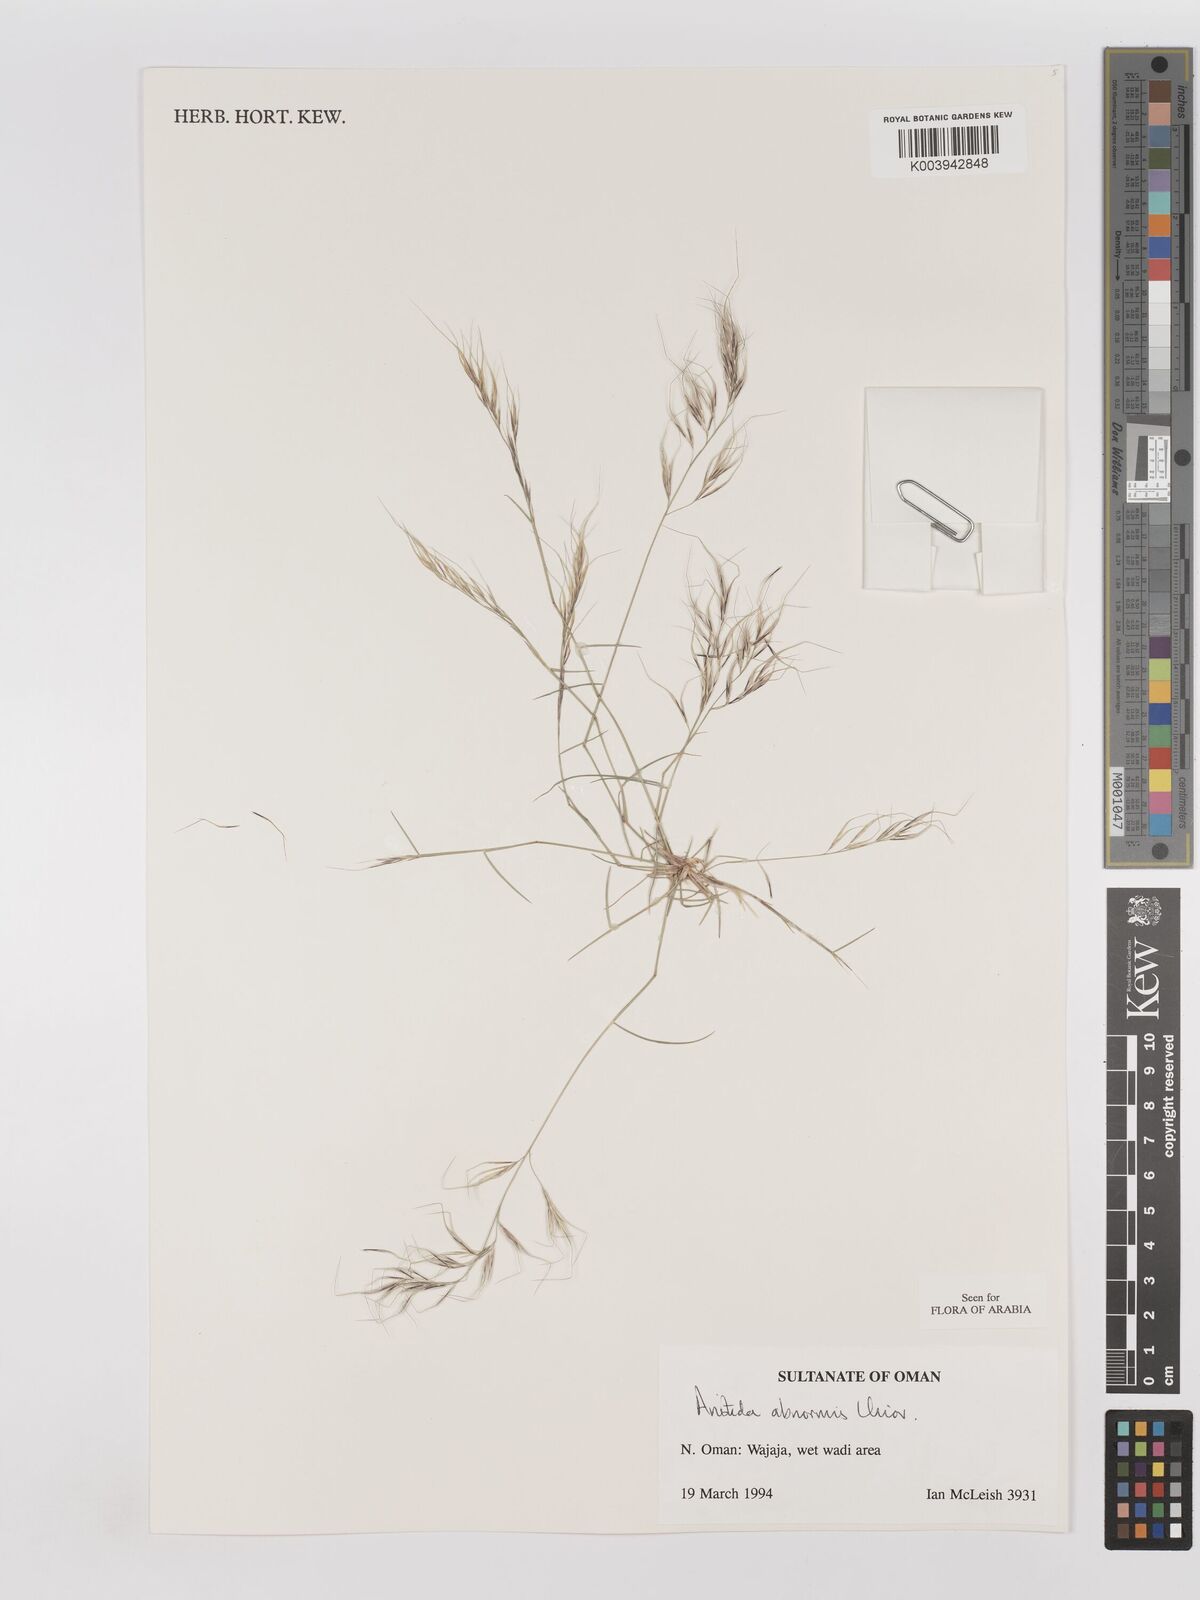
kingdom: Plantae
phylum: Tracheophyta
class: Liliopsida
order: Poales
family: Poaceae
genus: Aristida
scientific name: Aristida abnormis
